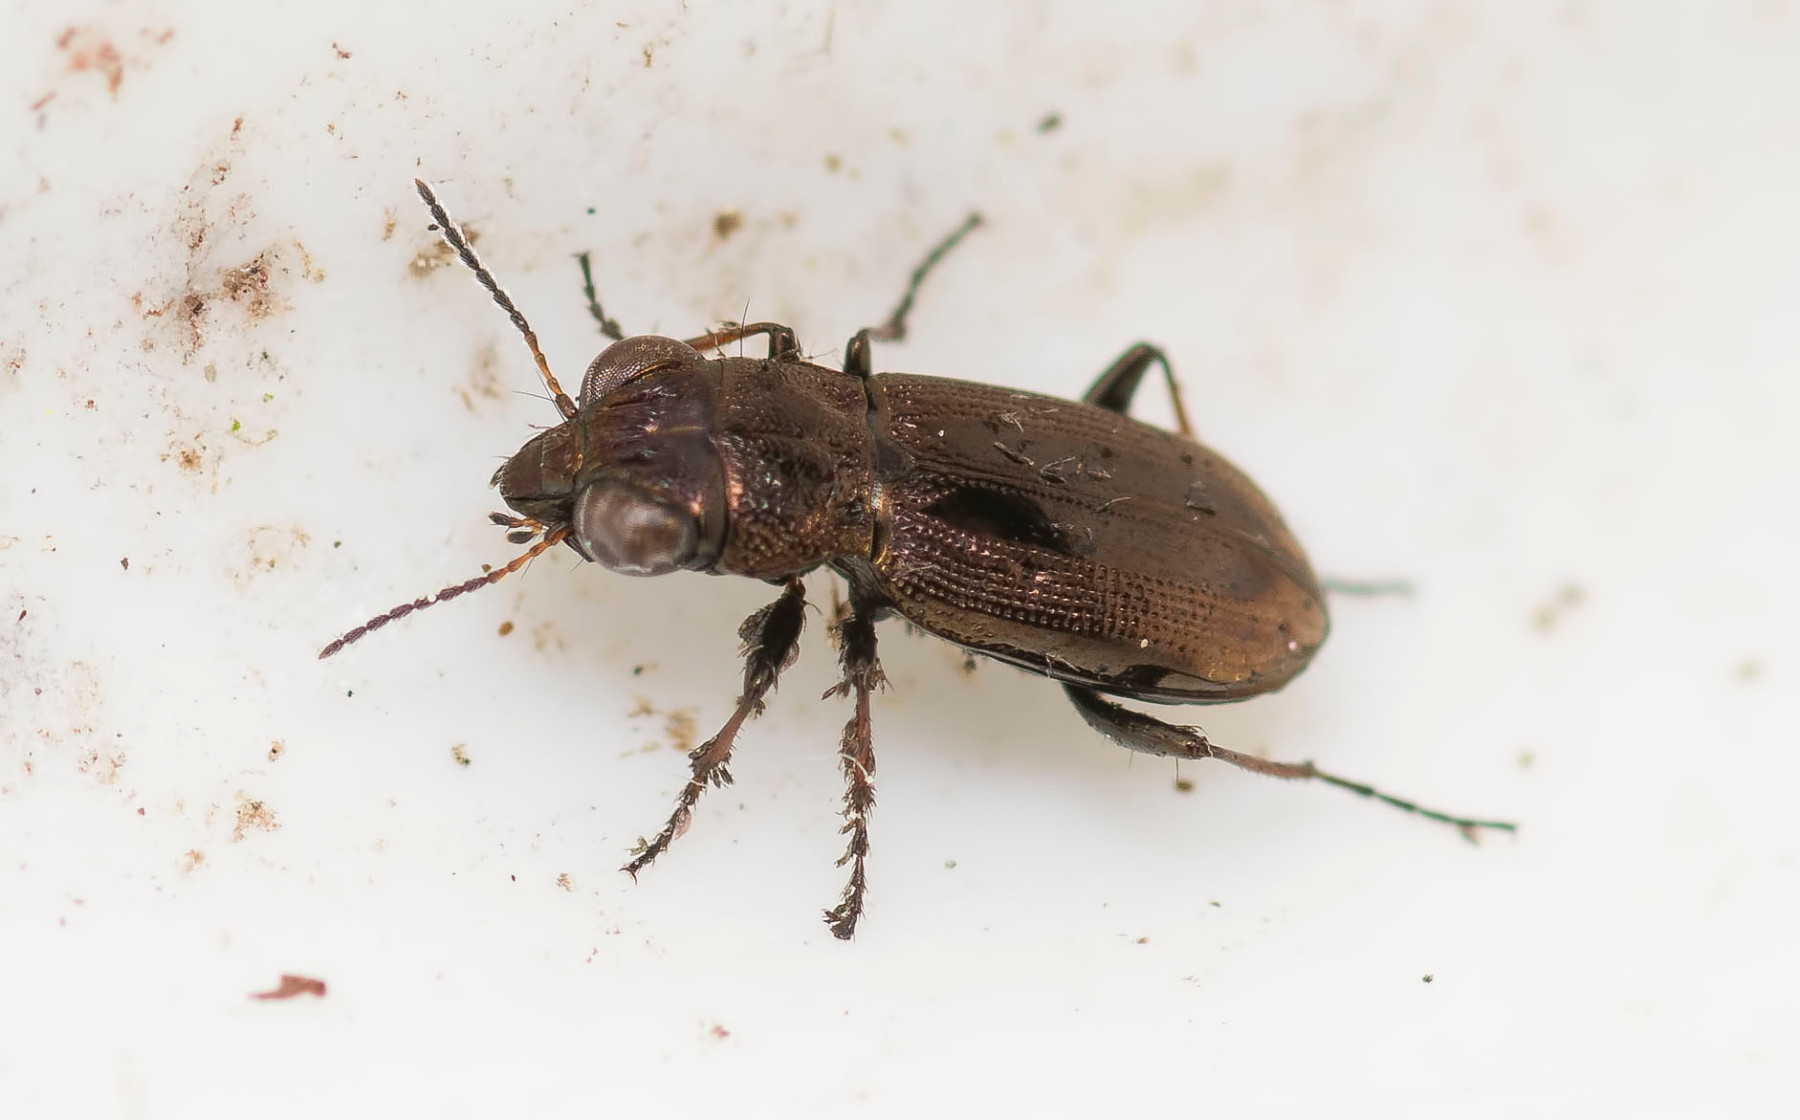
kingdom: Fungi
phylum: Ascomycota
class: Laboulbeniomycetes
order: Laboulbeniales
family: Laboulbeniaceae
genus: Laboulbenia
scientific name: Laboulbenia notiophili
